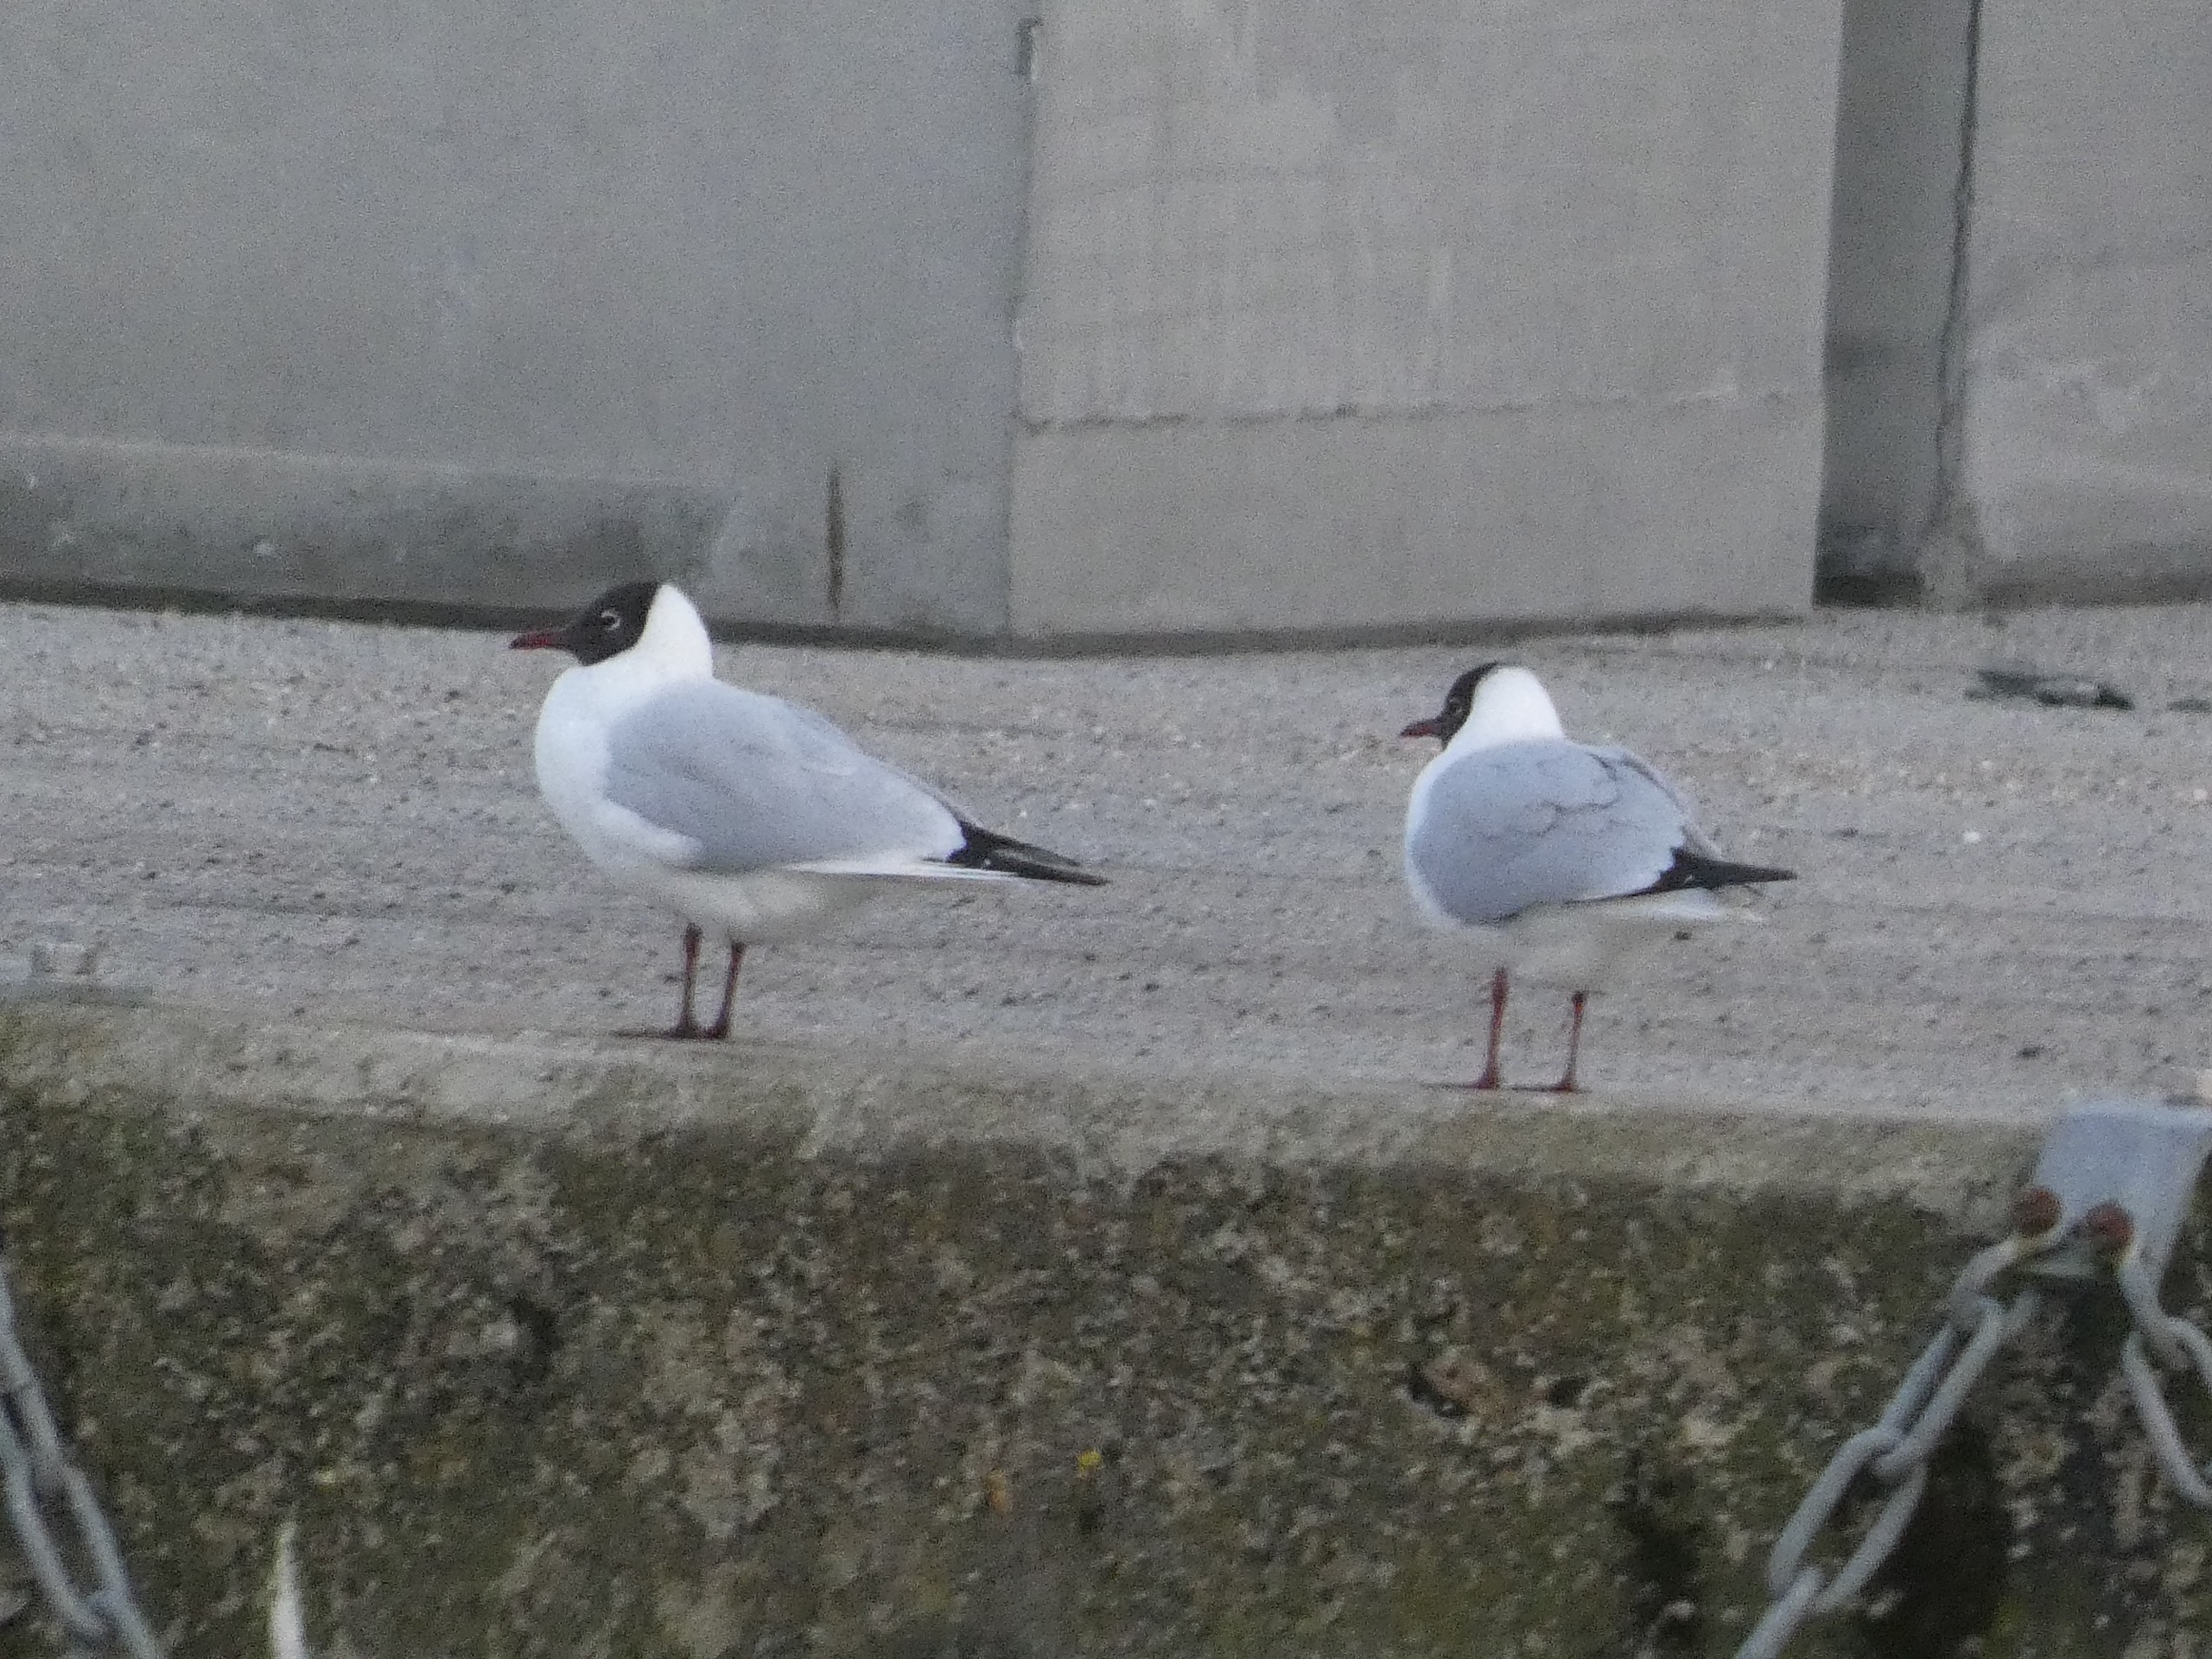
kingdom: Animalia
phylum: Chordata
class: Aves
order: Charadriiformes
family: Laridae
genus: Chroicocephalus
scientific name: Chroicocephalus ridibundus
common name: Hættemåge
